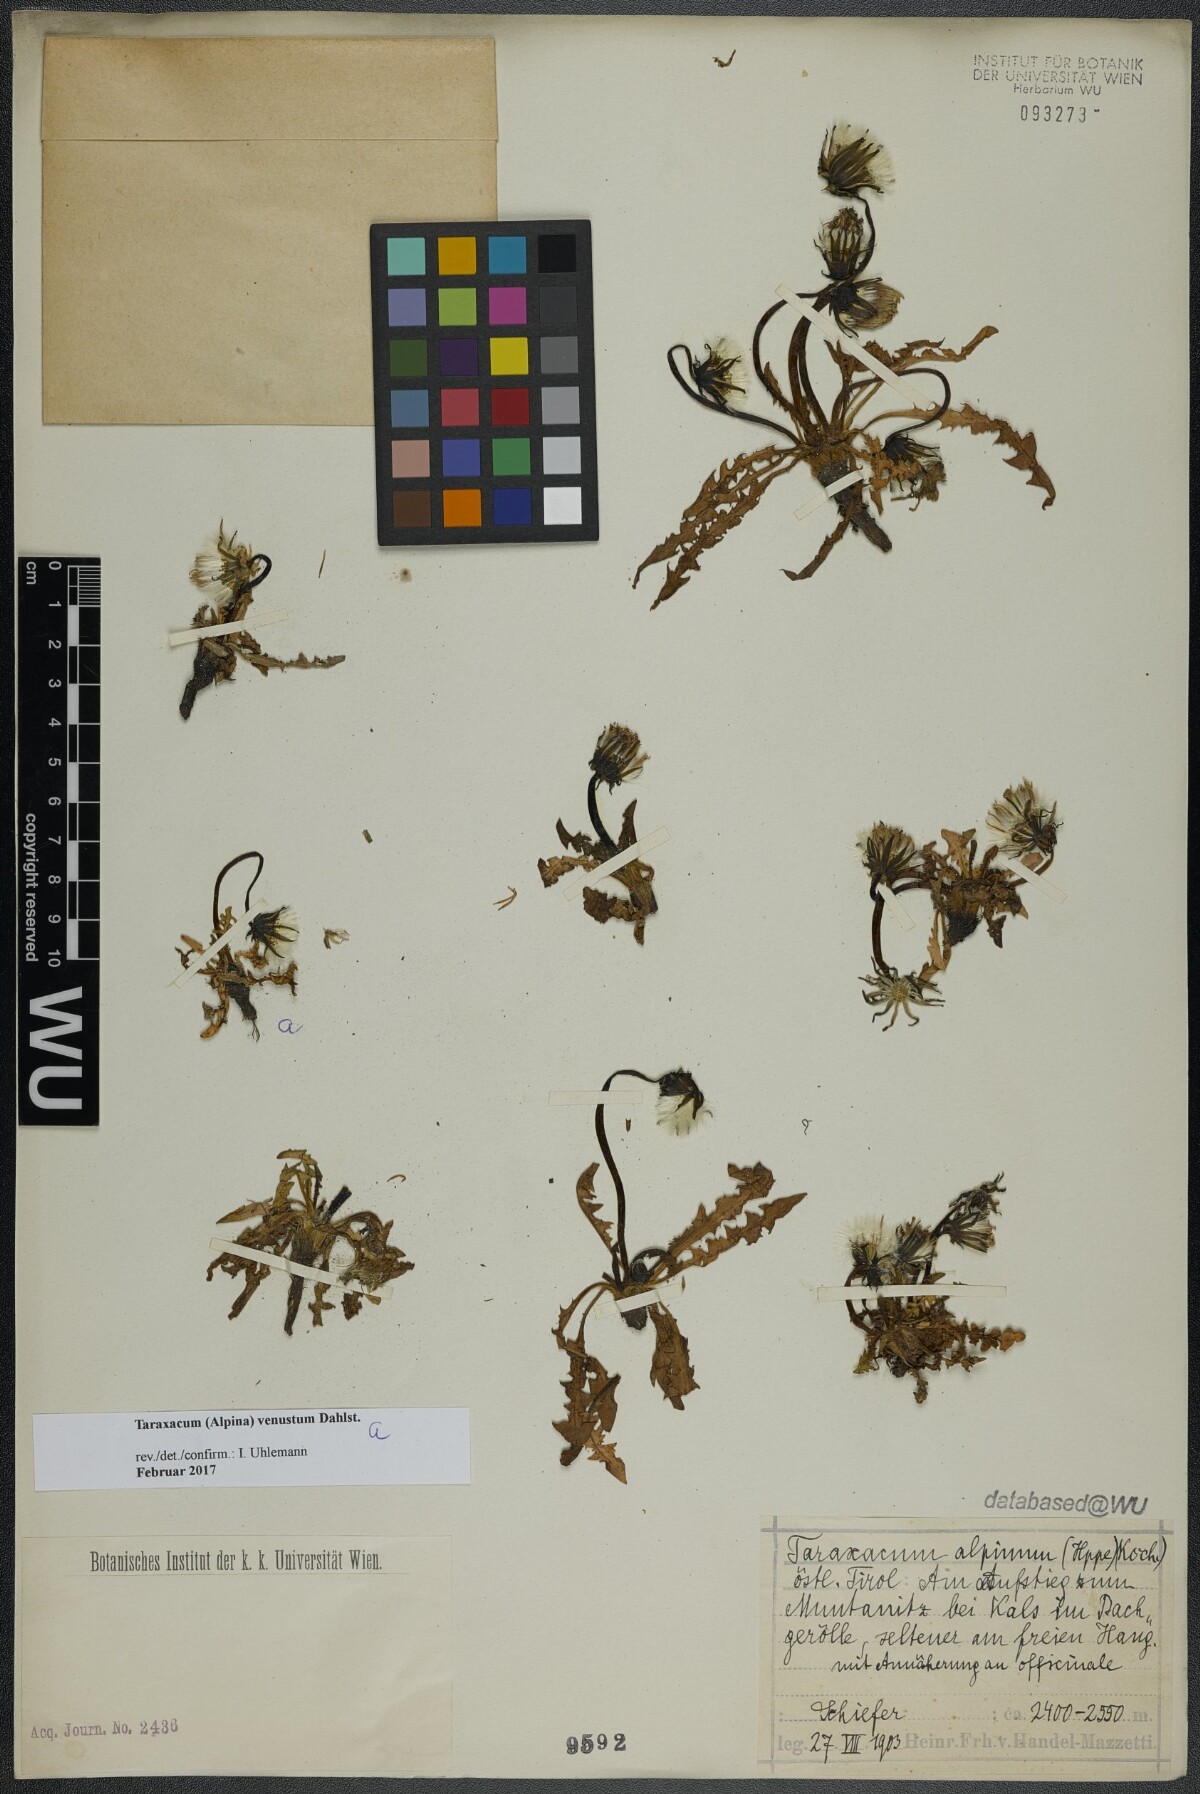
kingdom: Plantae
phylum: Tracheophyta
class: Magnoliopsida
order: Asterales
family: Asteraceae
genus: Taraxacum
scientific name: Taraxacum venustum
